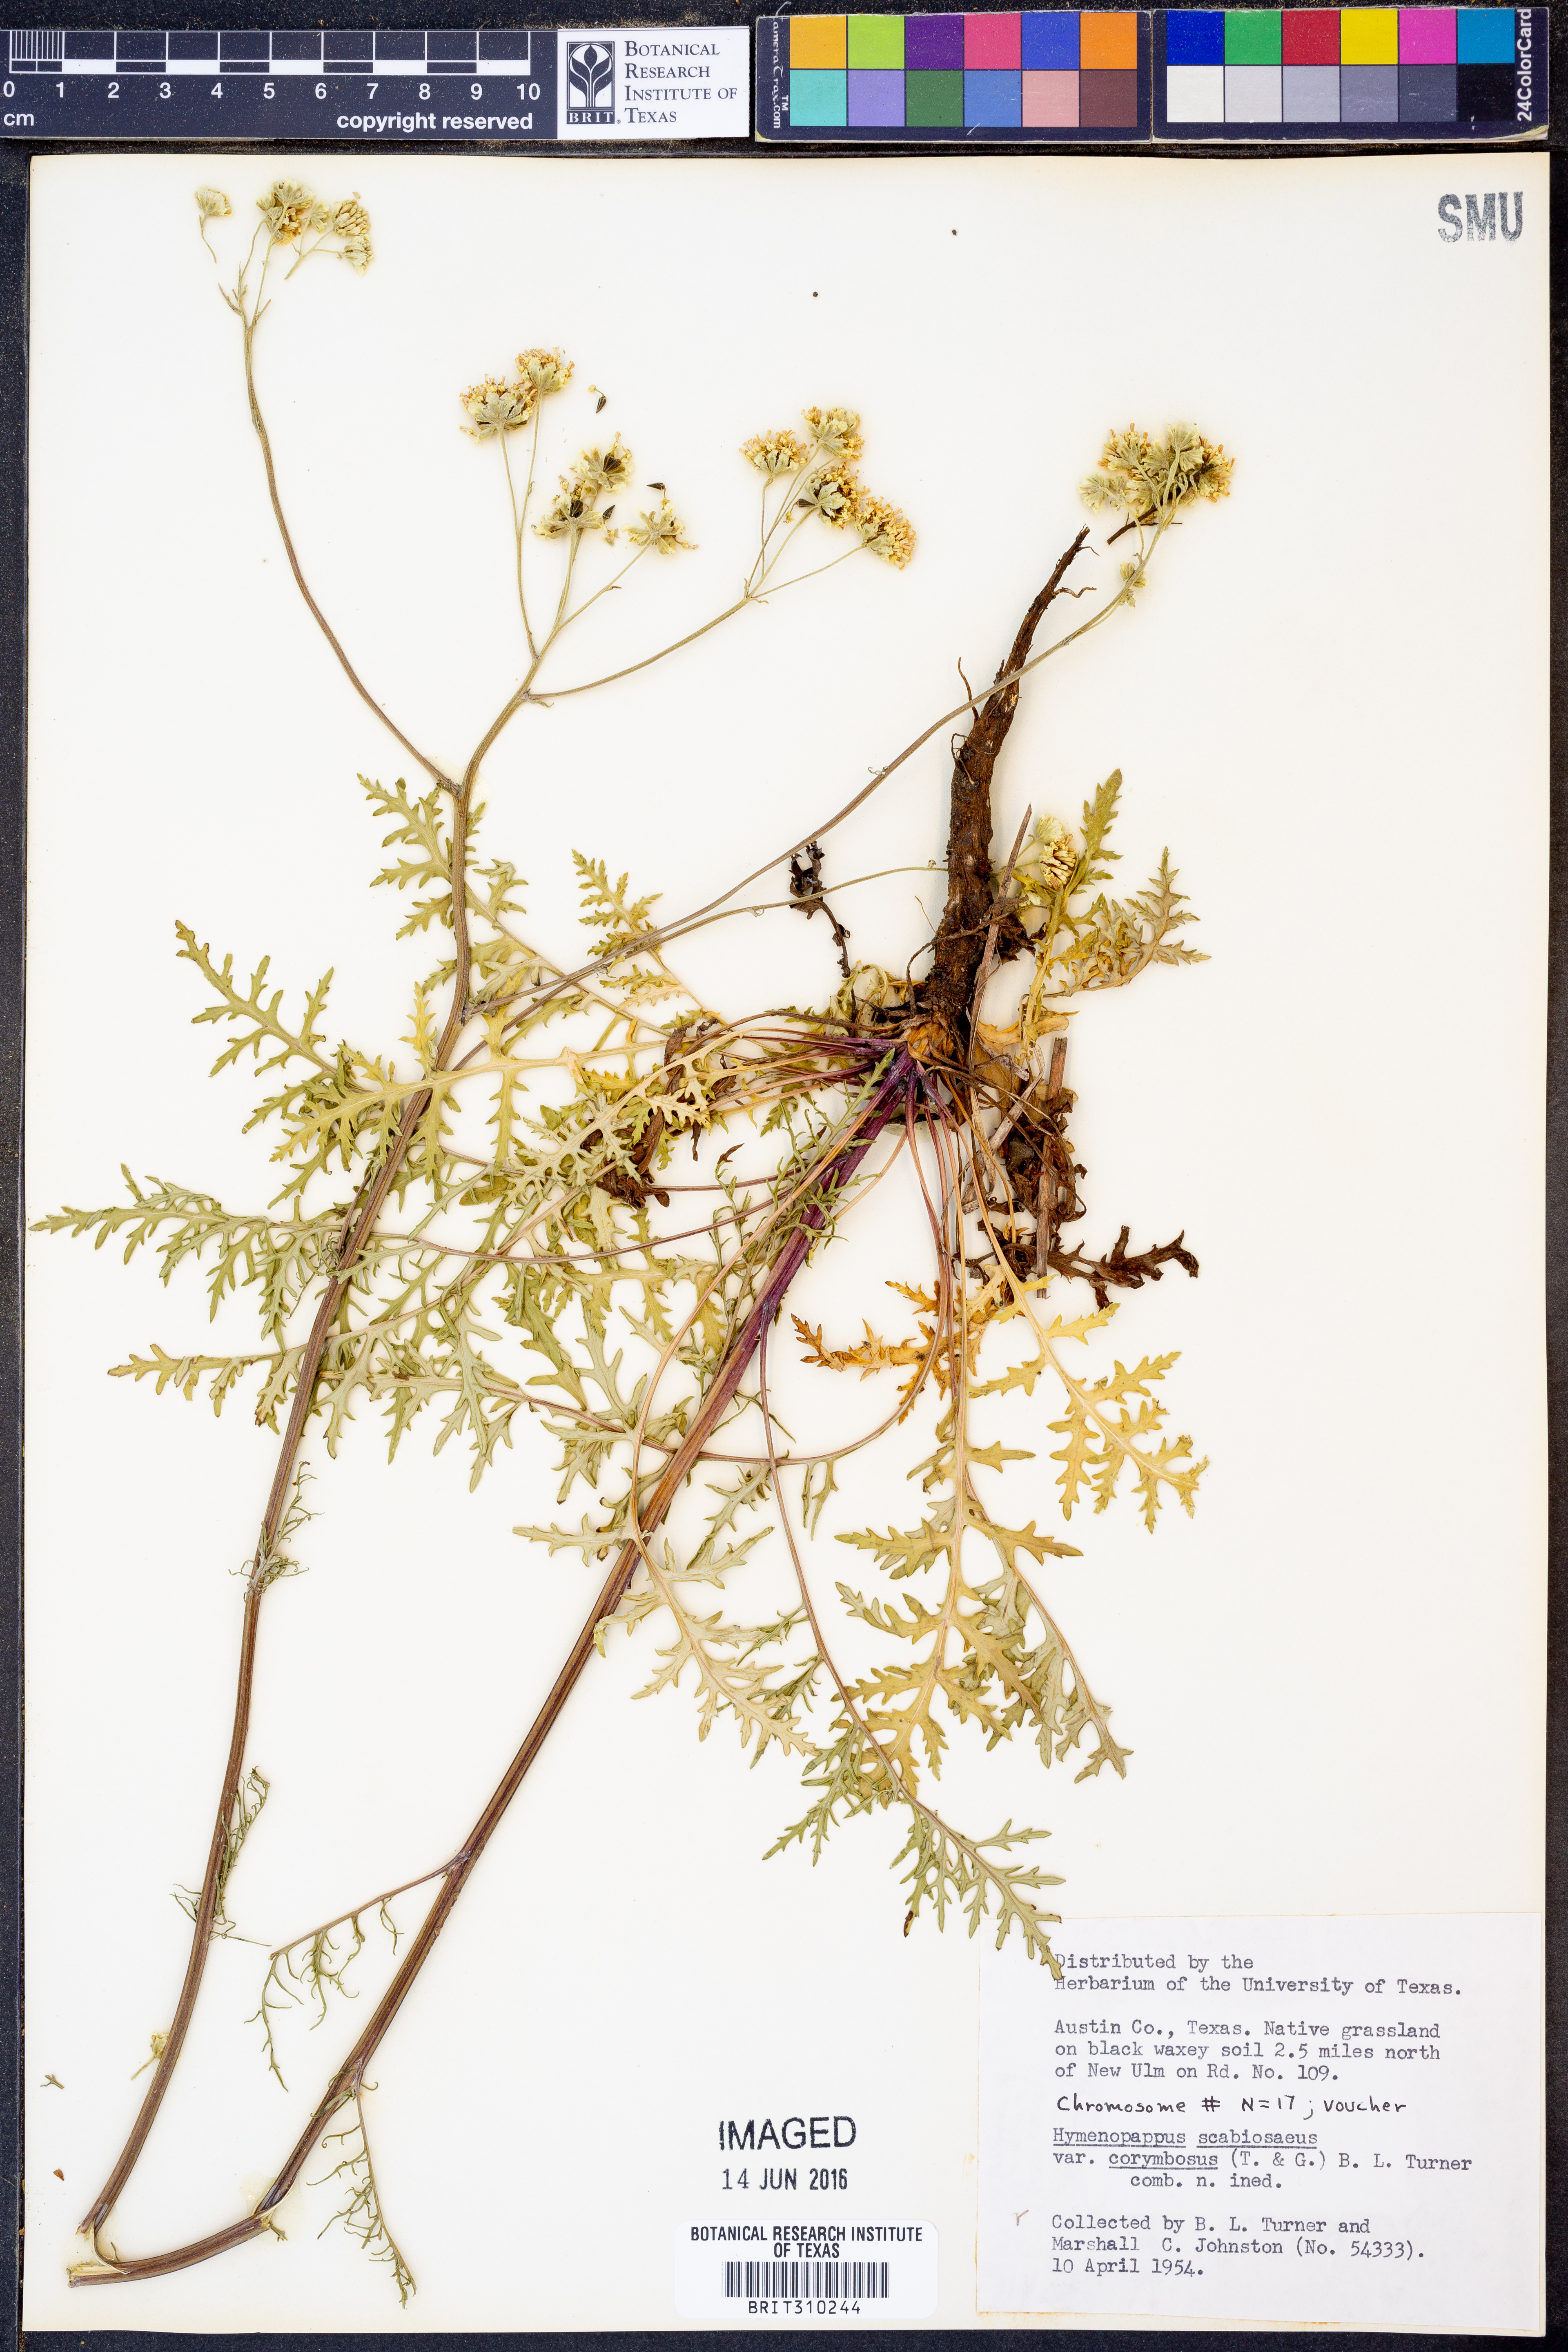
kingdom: Plantae
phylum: Tracheophyta
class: Magnoliopsida
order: Asterales
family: Asteraceae
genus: Hymenopappus
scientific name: Hymenopappus scabiosaeus
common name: Carolina woollywhite
